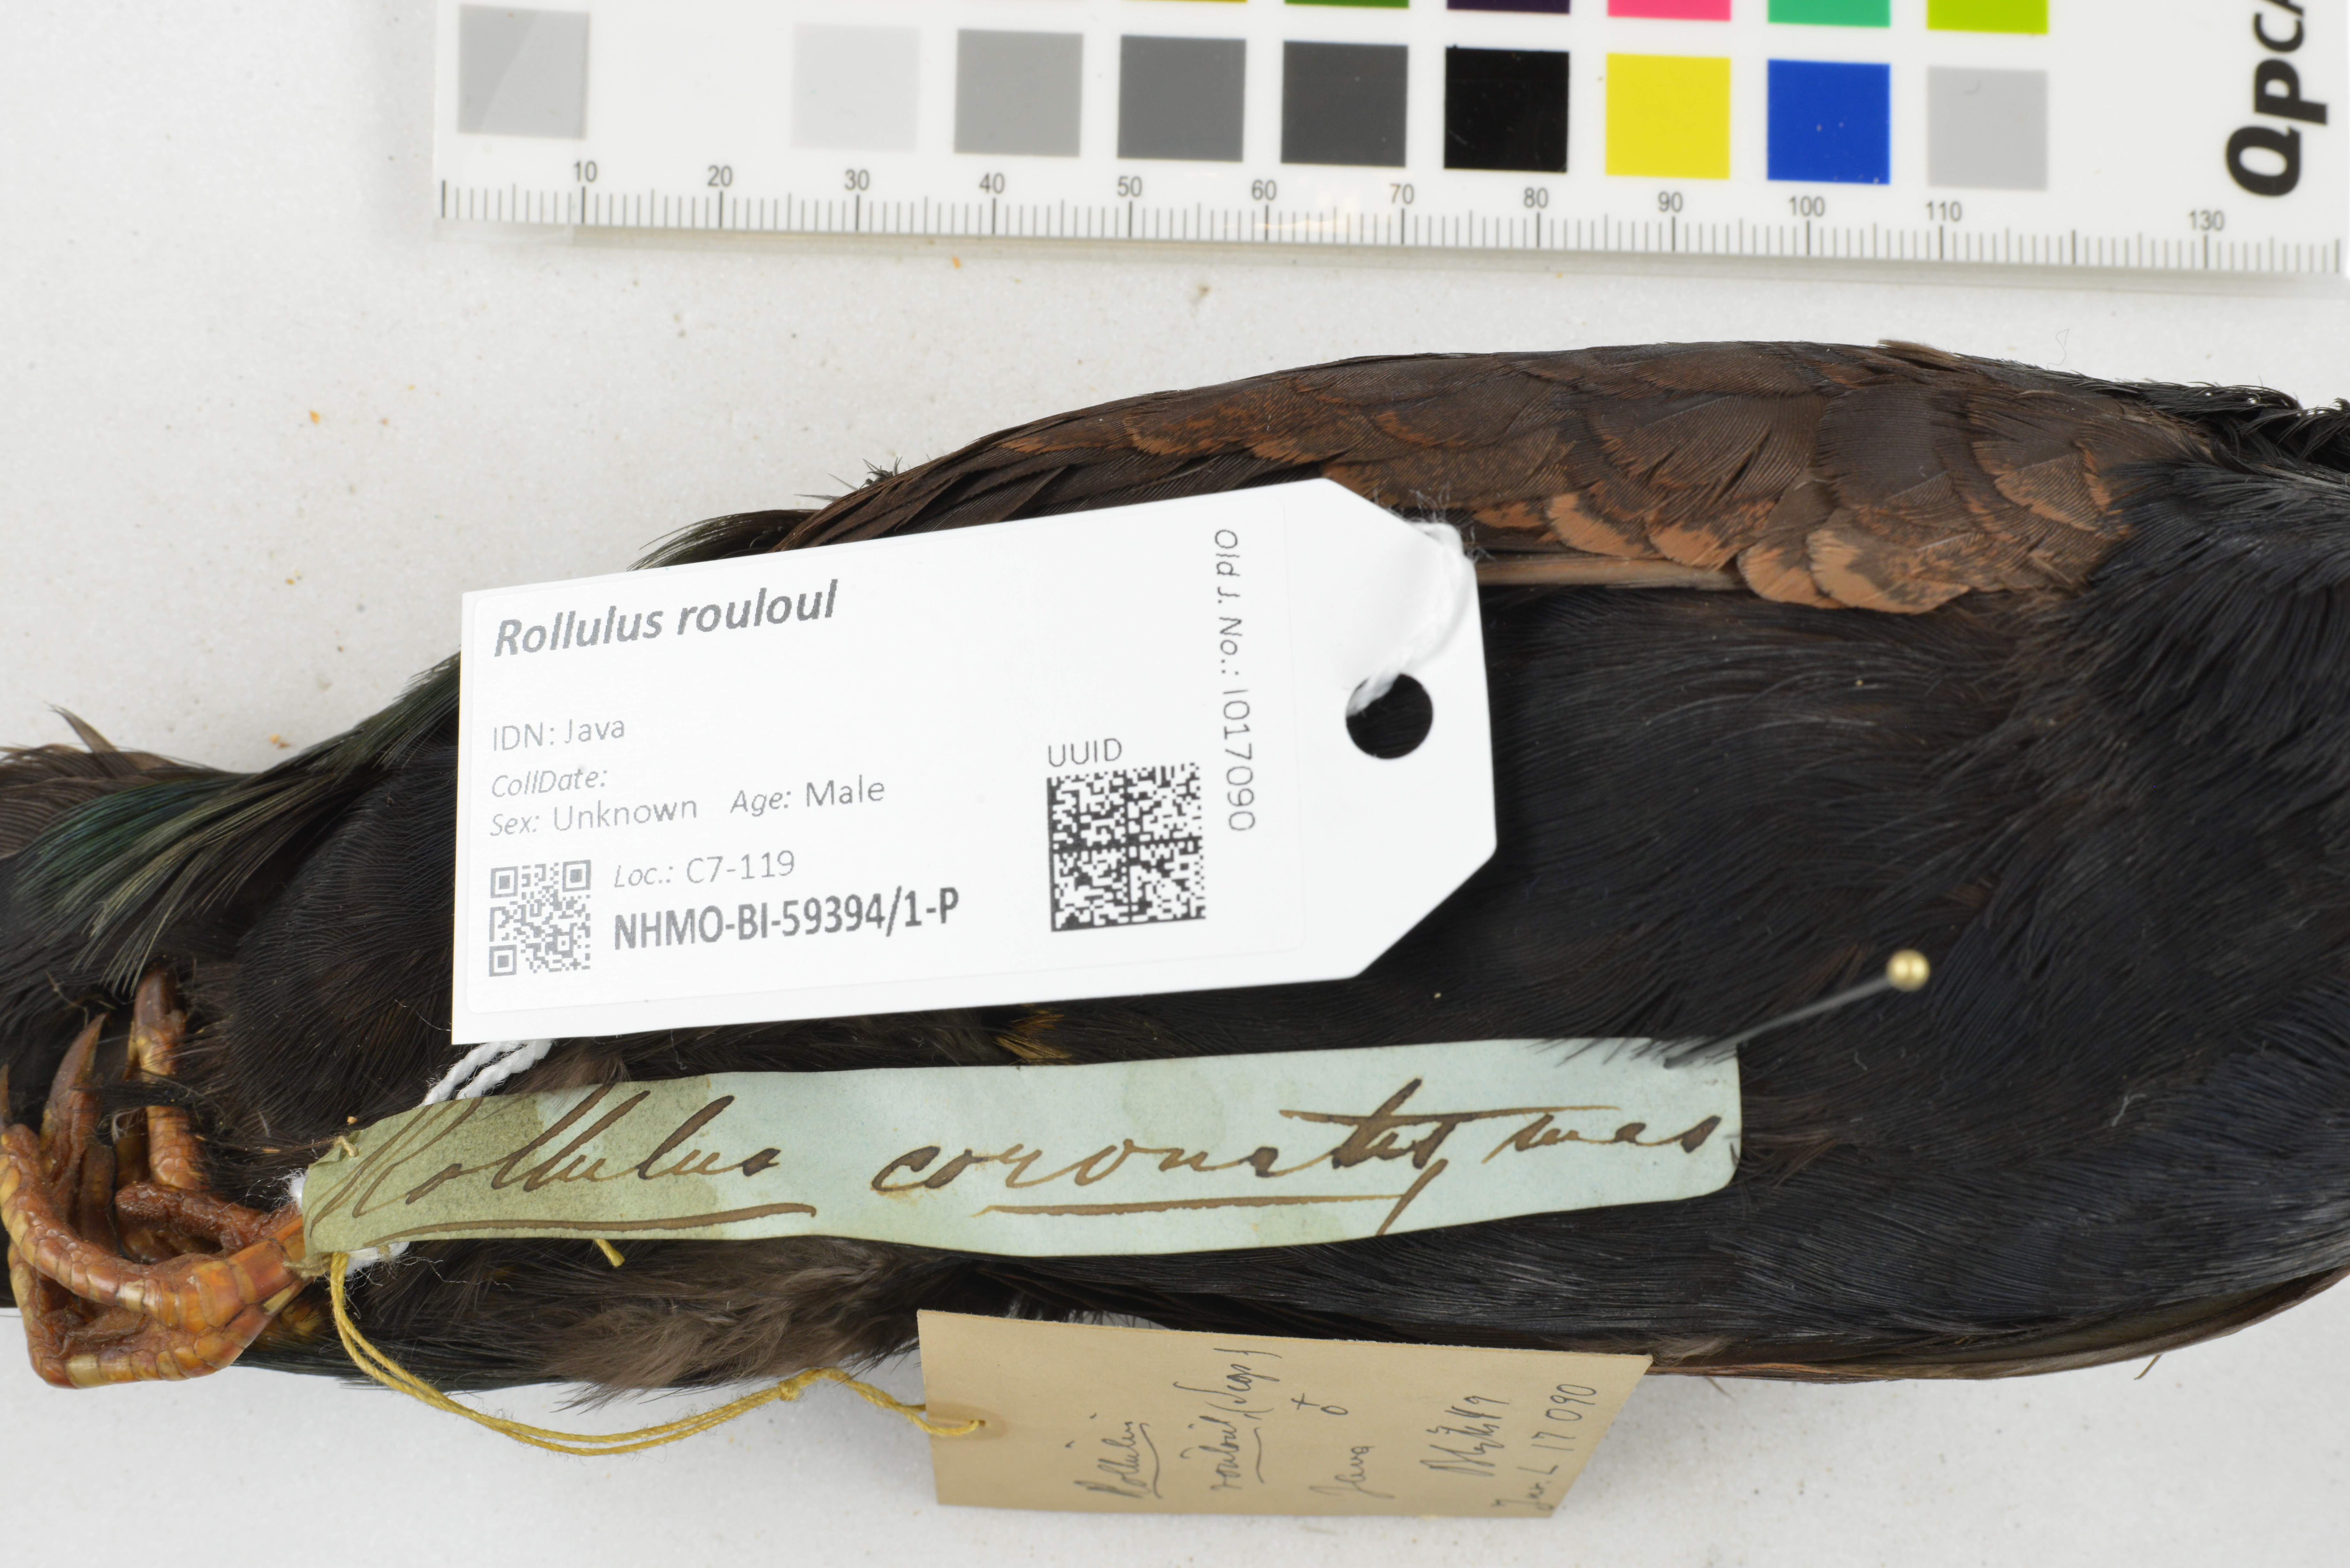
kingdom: Animalia
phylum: Chordata
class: Aves
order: Galliformes
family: Phasianidae
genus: Rollulus
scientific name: Rollulus rouloul
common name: Crested partridge
